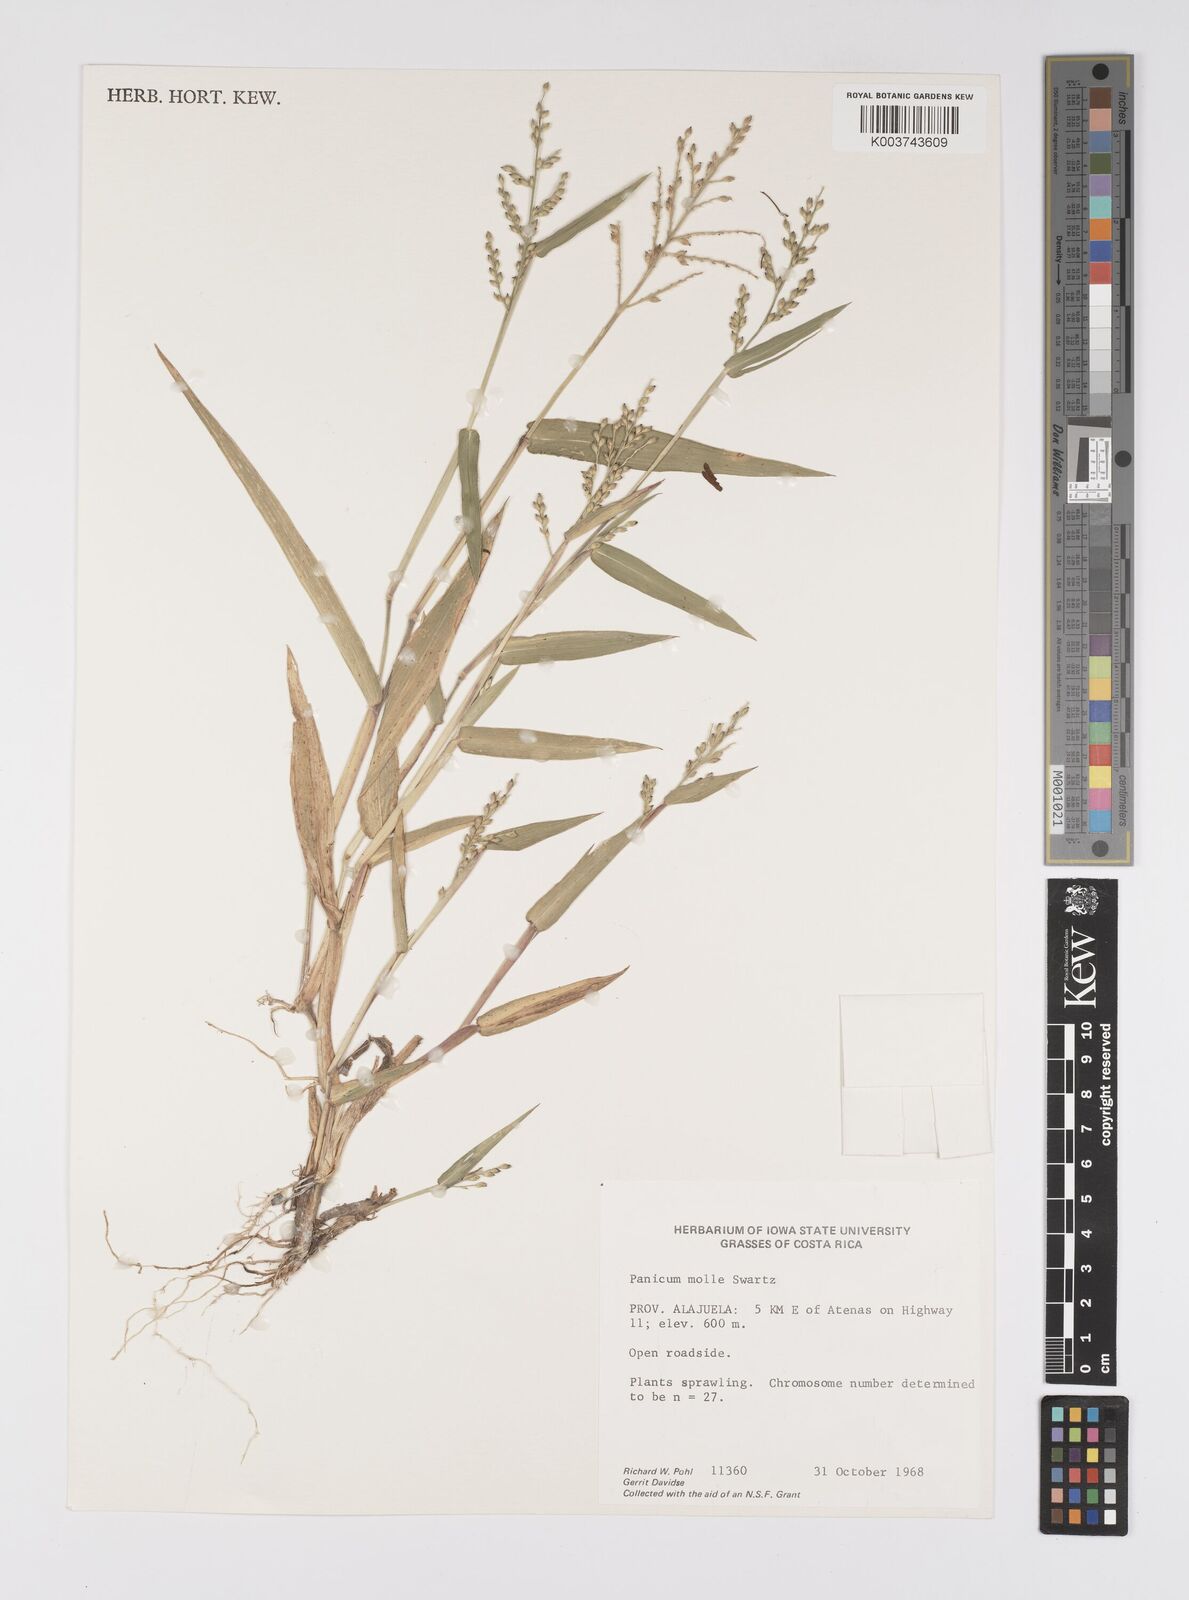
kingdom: Plantae
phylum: Tracheophyta
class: Liliopsida
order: Poales
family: Poaceae
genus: Urochloa
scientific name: Urochloa mollis
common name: Grass
